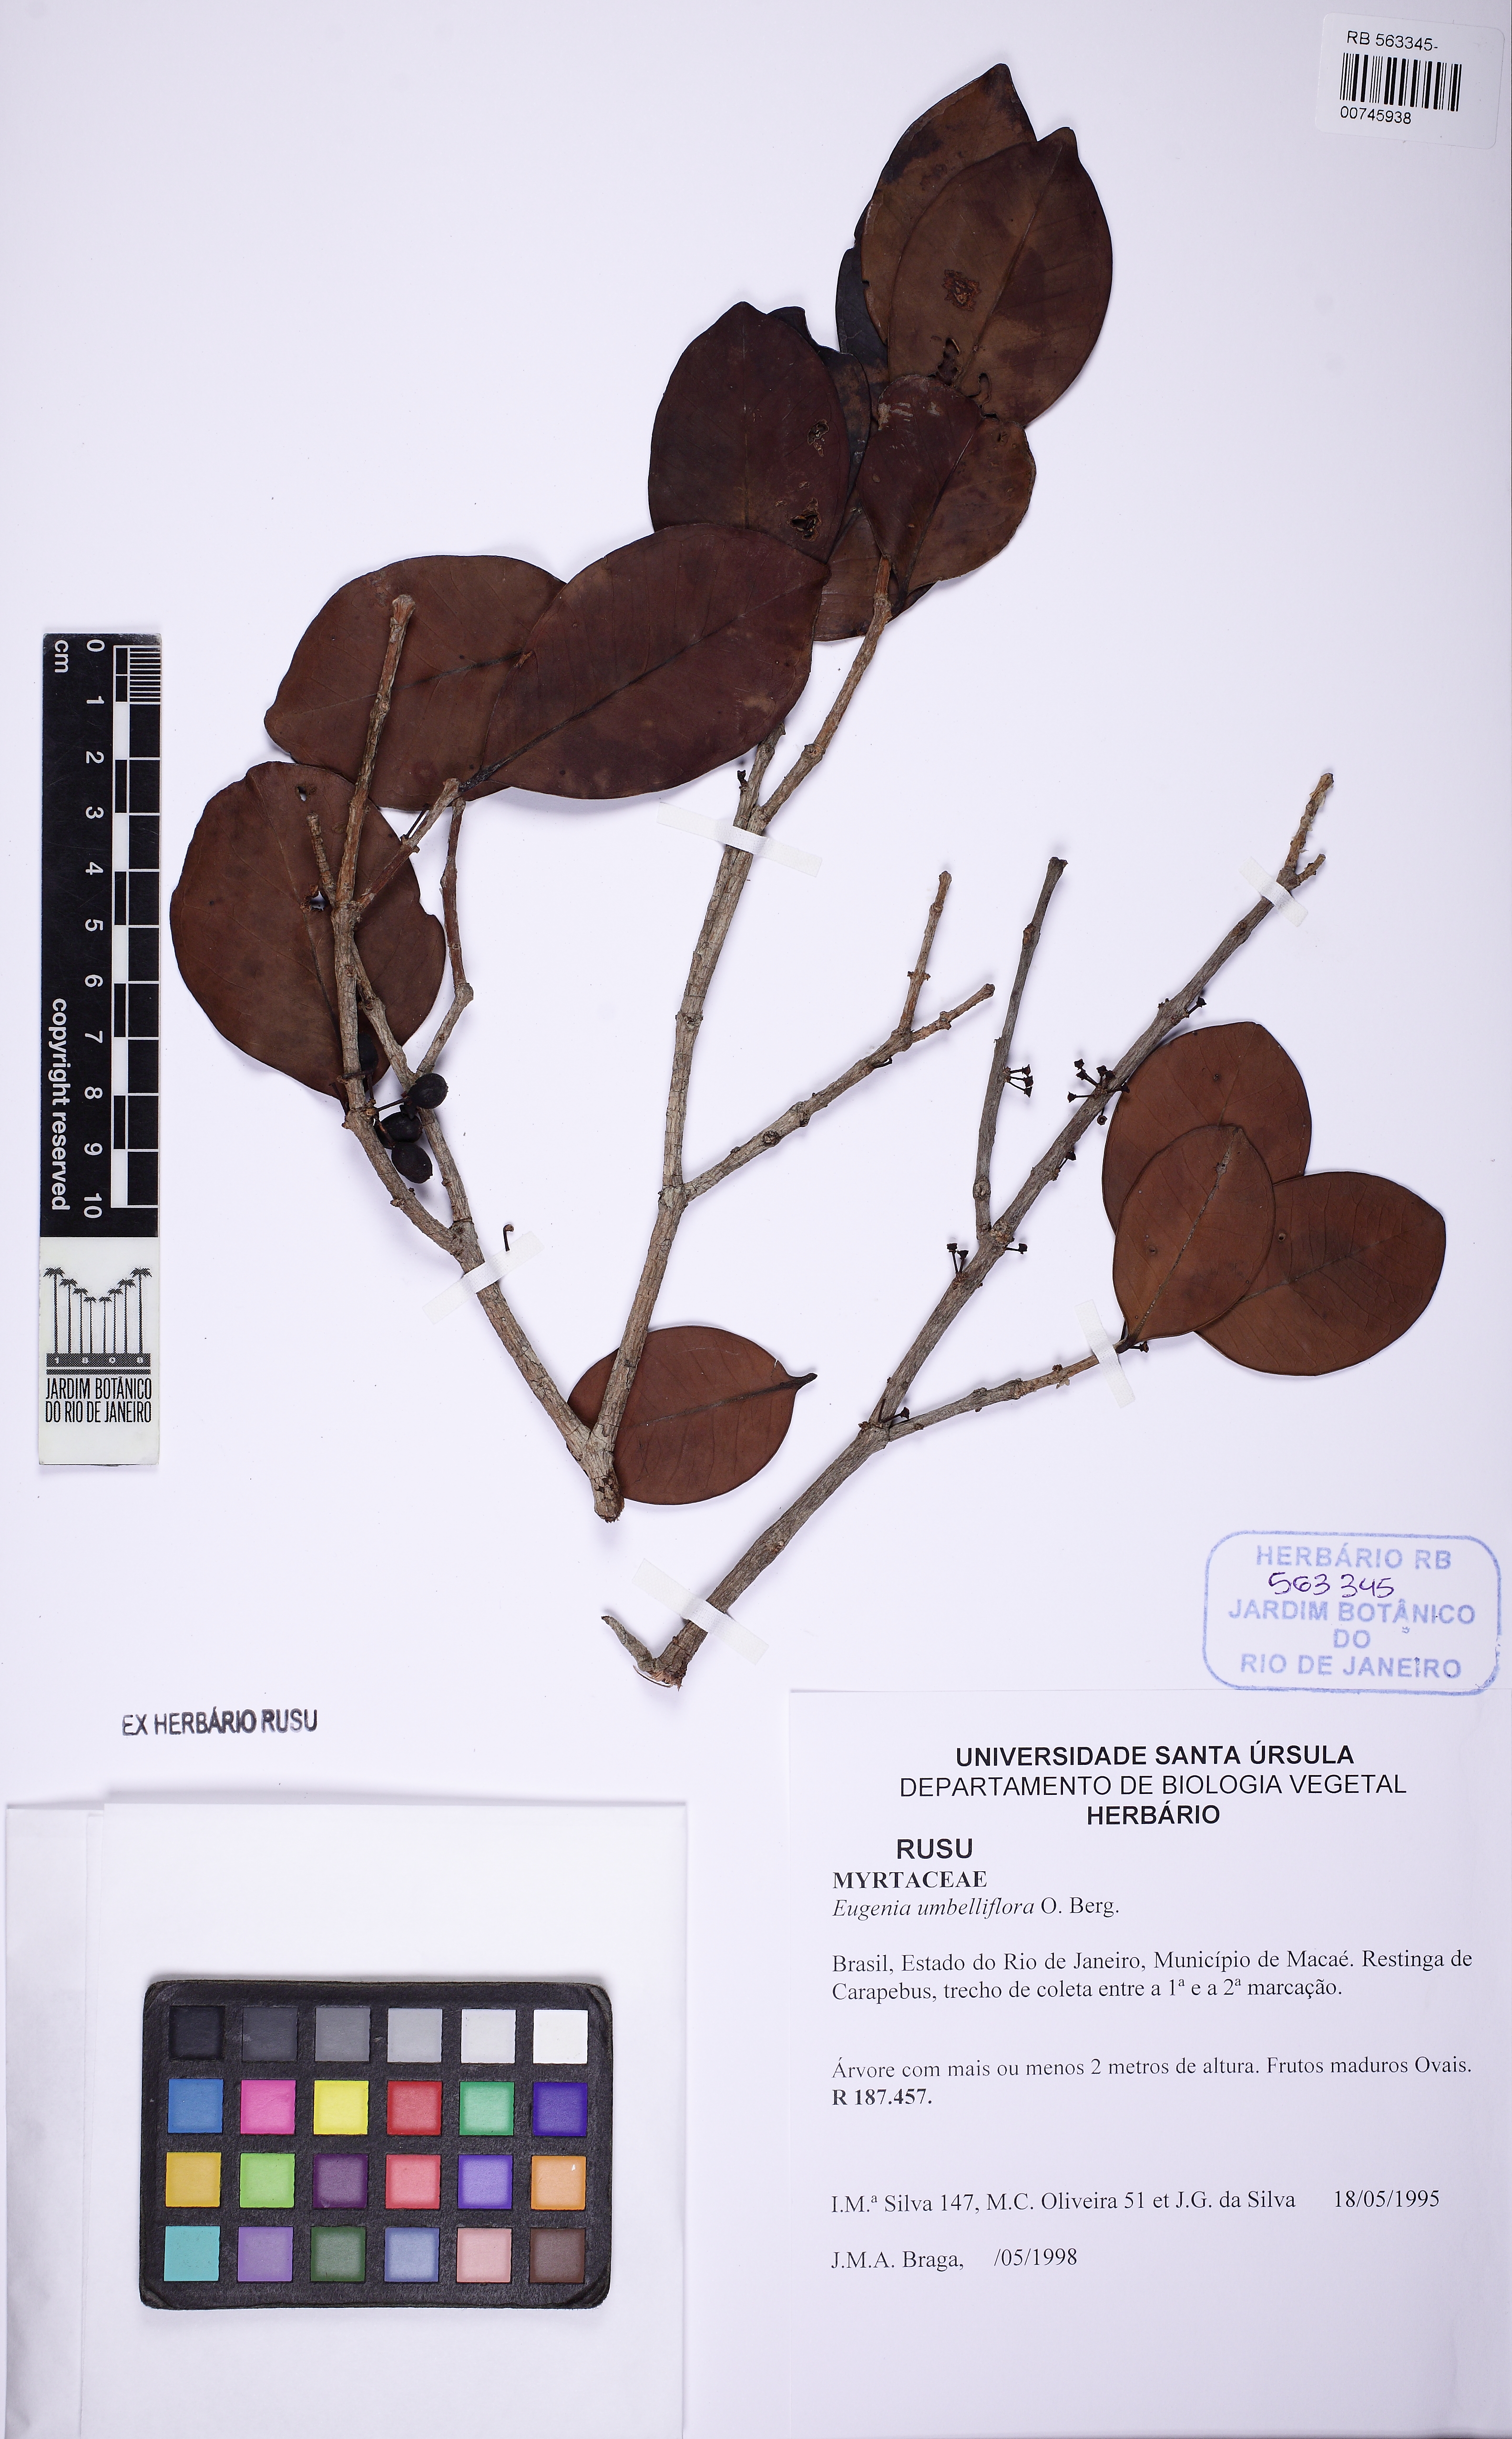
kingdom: Plantae
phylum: Tracheophyta
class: Magnoliopsida
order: Myrtales
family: Myrtaceae
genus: Eugenia
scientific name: Eugenia astringens
